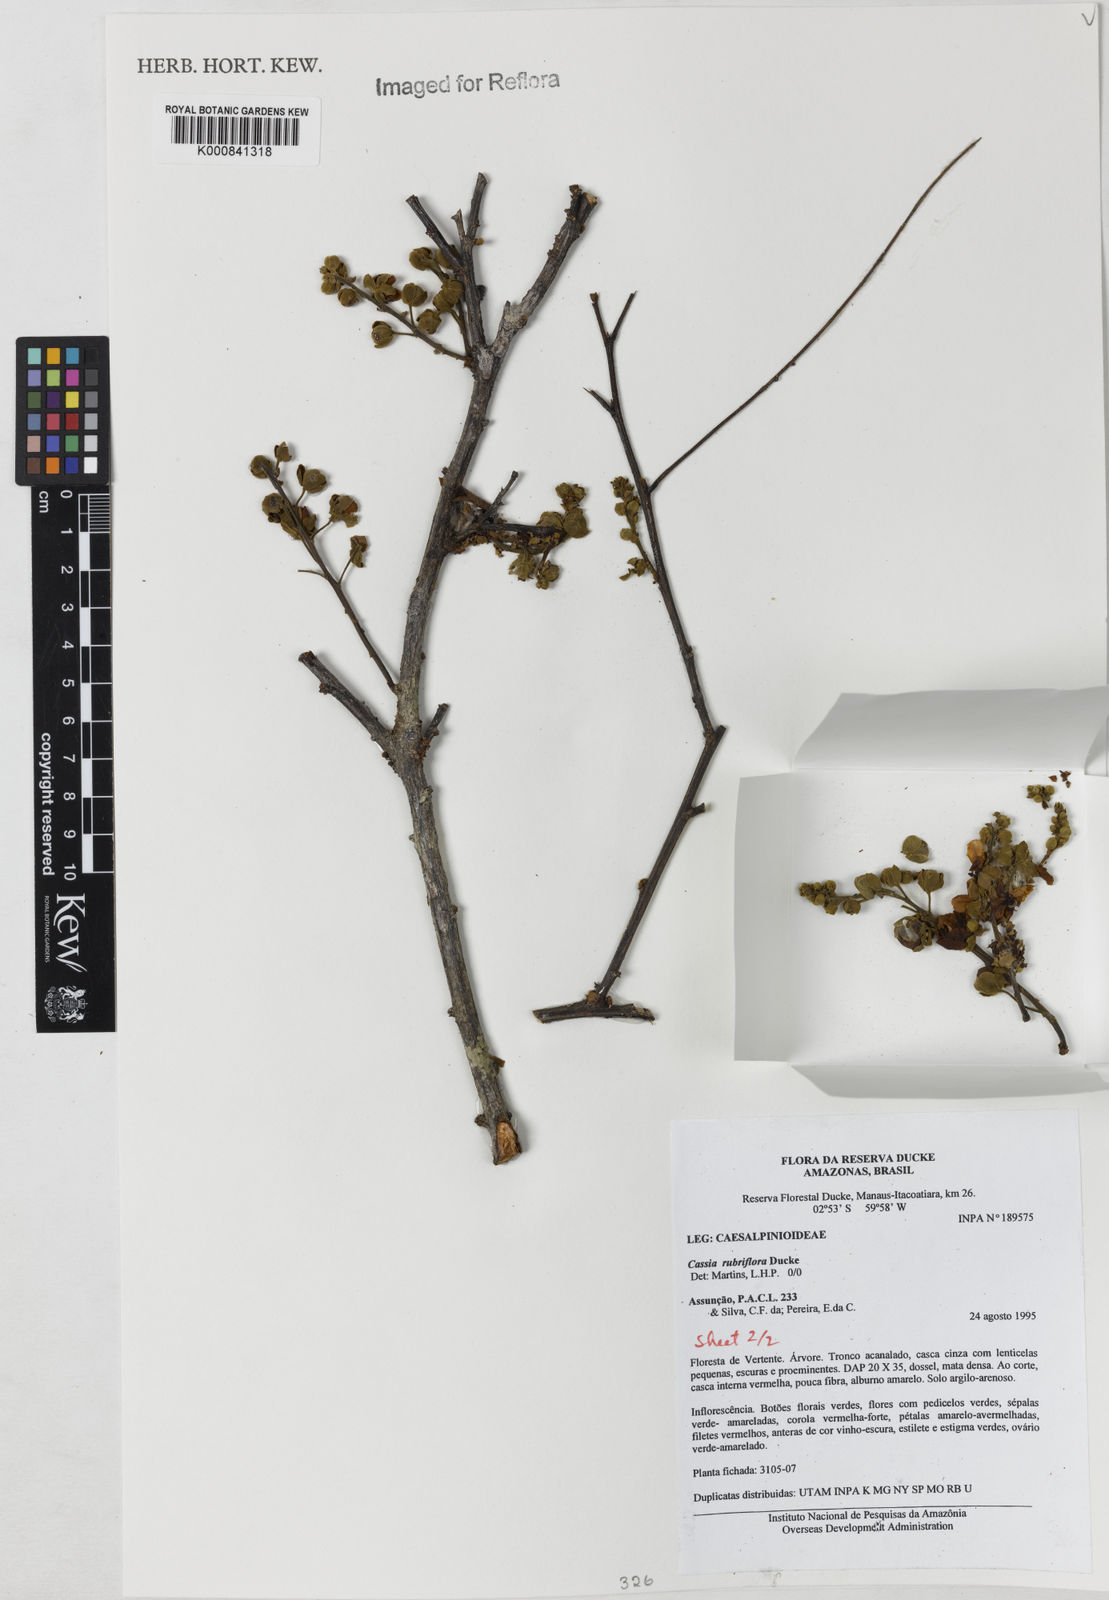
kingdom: Plantae
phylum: Tracheophyta
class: Magnoliopsida
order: Fabales
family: Fabaceae
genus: Cassia
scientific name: Cassia rubriflora
